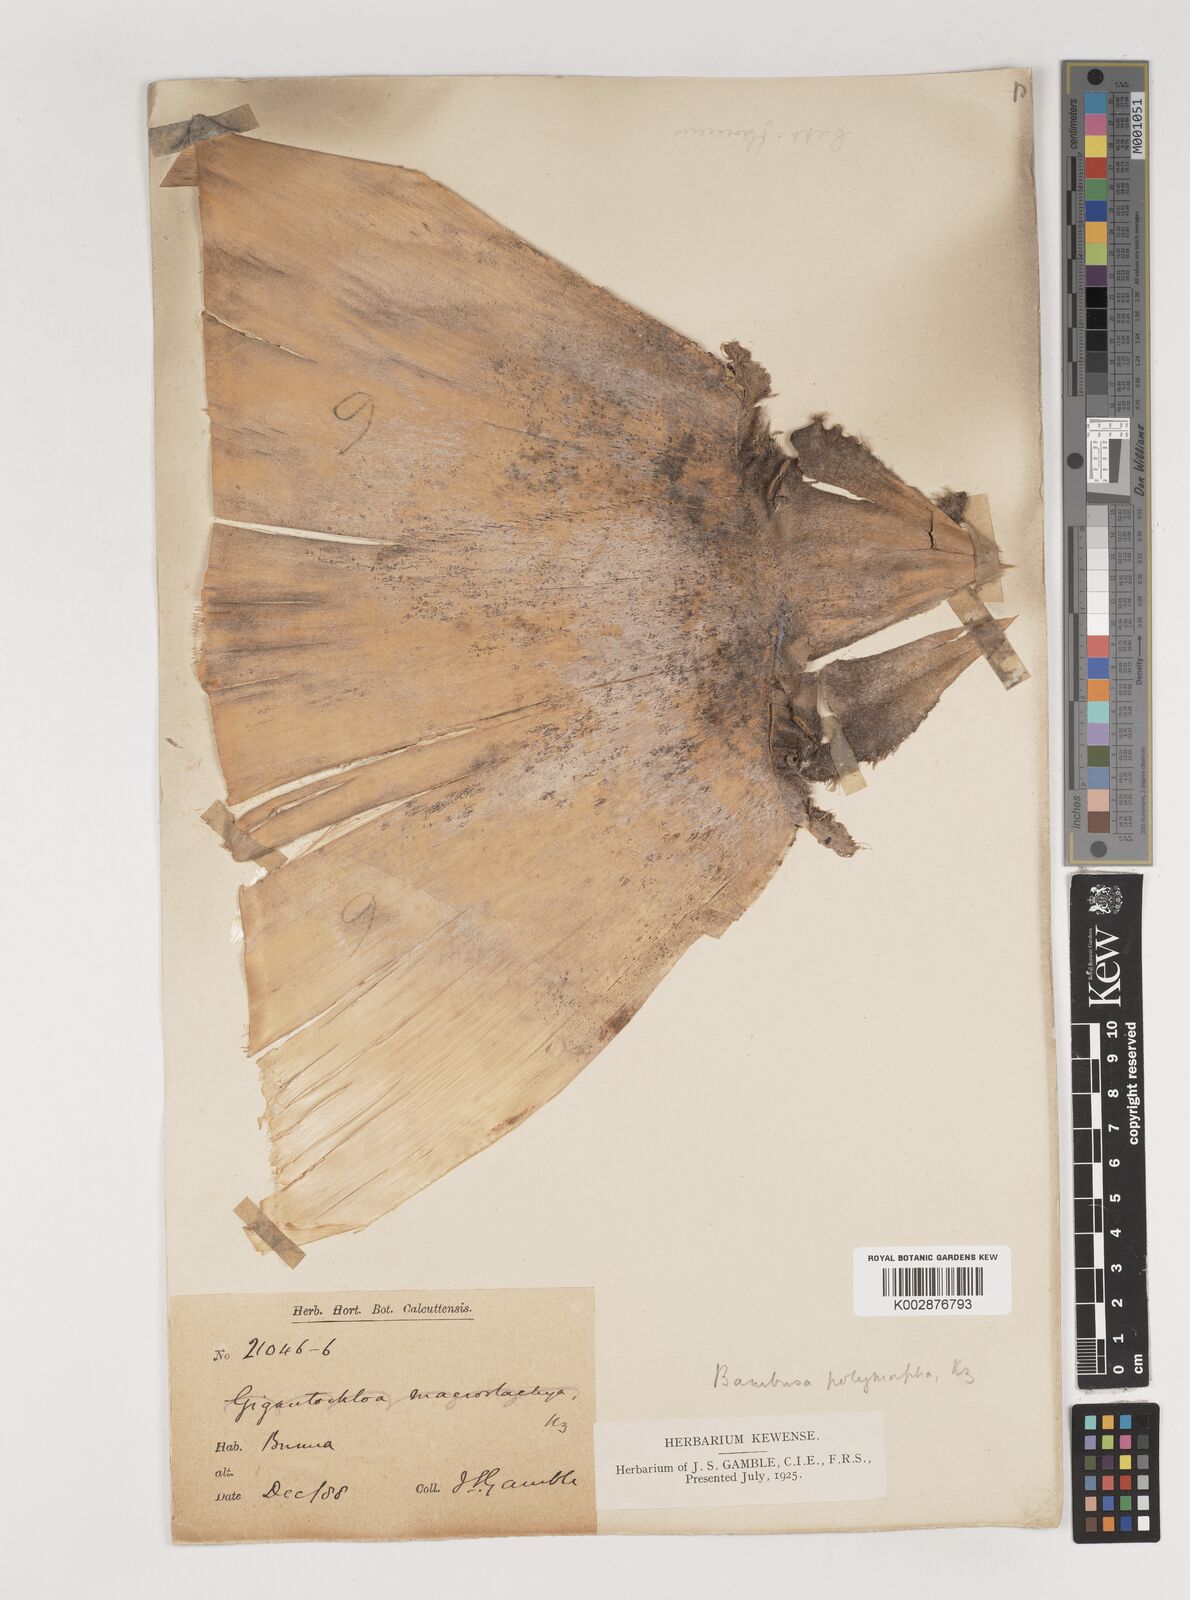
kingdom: Plantae
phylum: Tracheophyta
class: Liliopsida
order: Poales
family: Poaceae
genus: Bambusa
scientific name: Bambusa polymorpha
